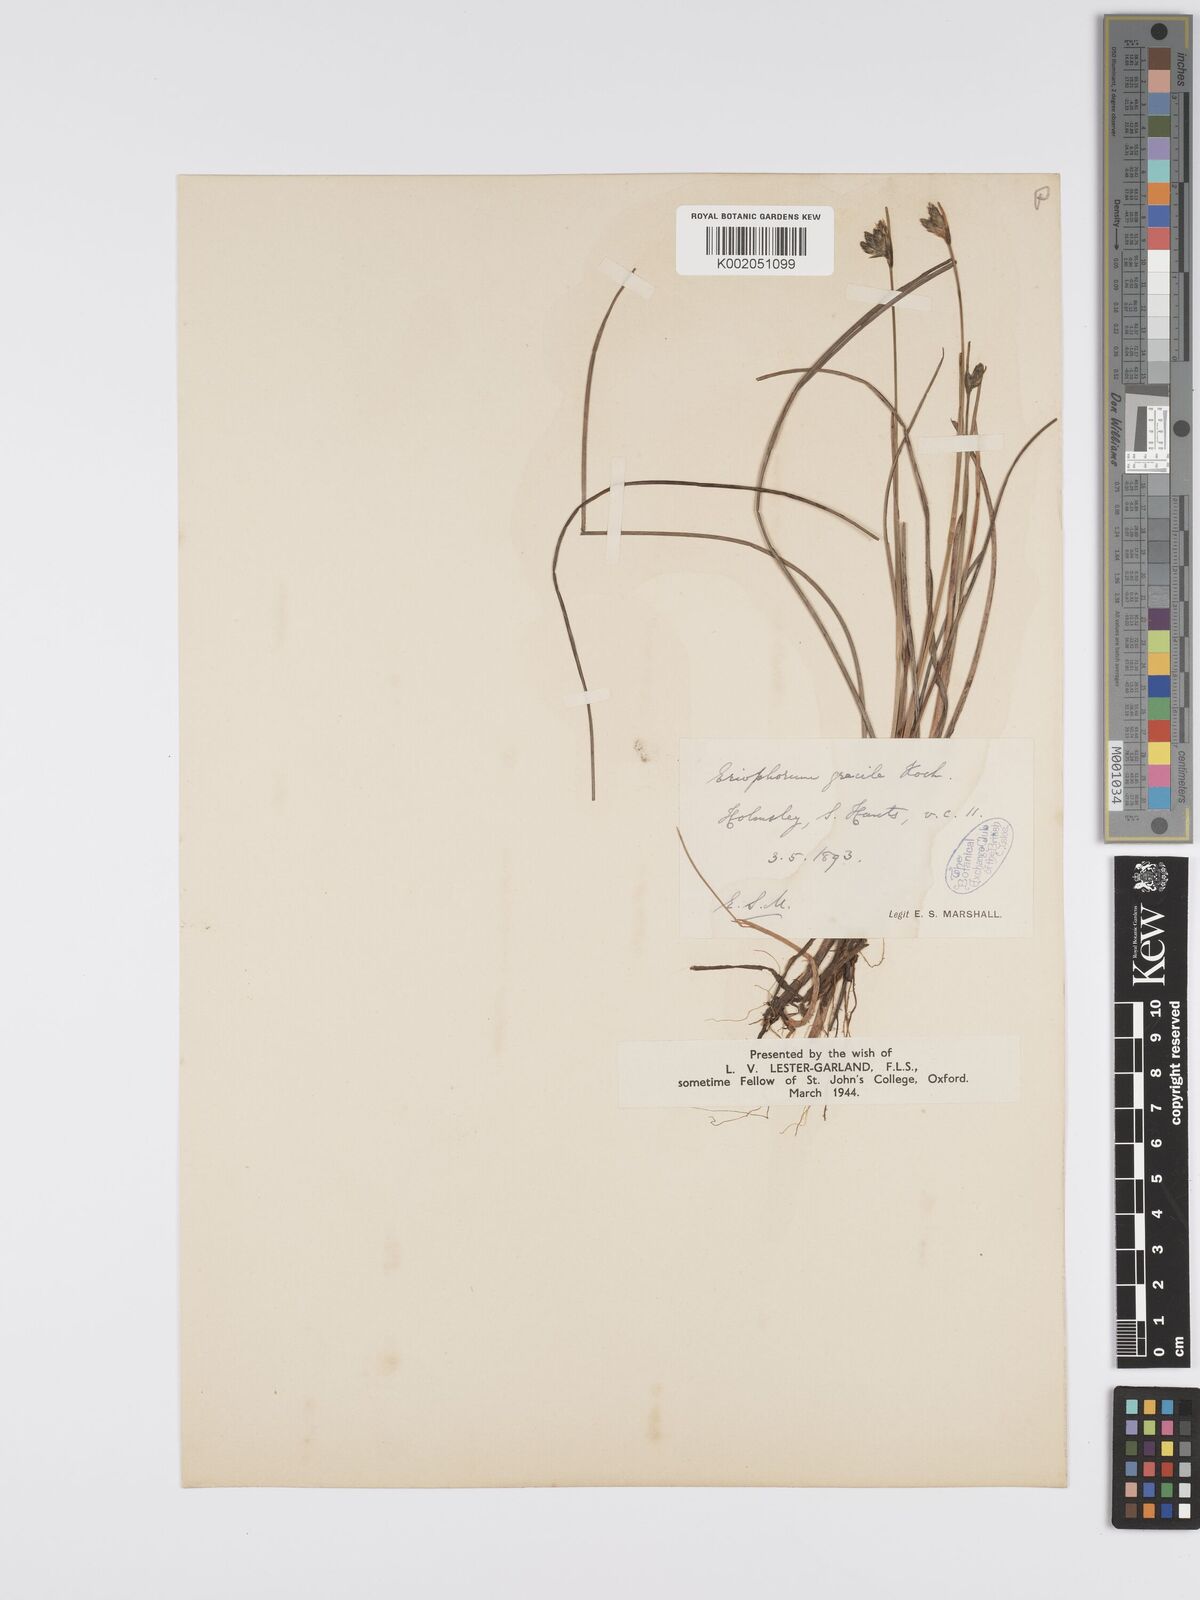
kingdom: Plantae
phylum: Tracheophyta
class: Liliopsida
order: Poales
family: Cyperaceae
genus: Eriophorum
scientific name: Eriophorum gracile
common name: Slender cottongrass
